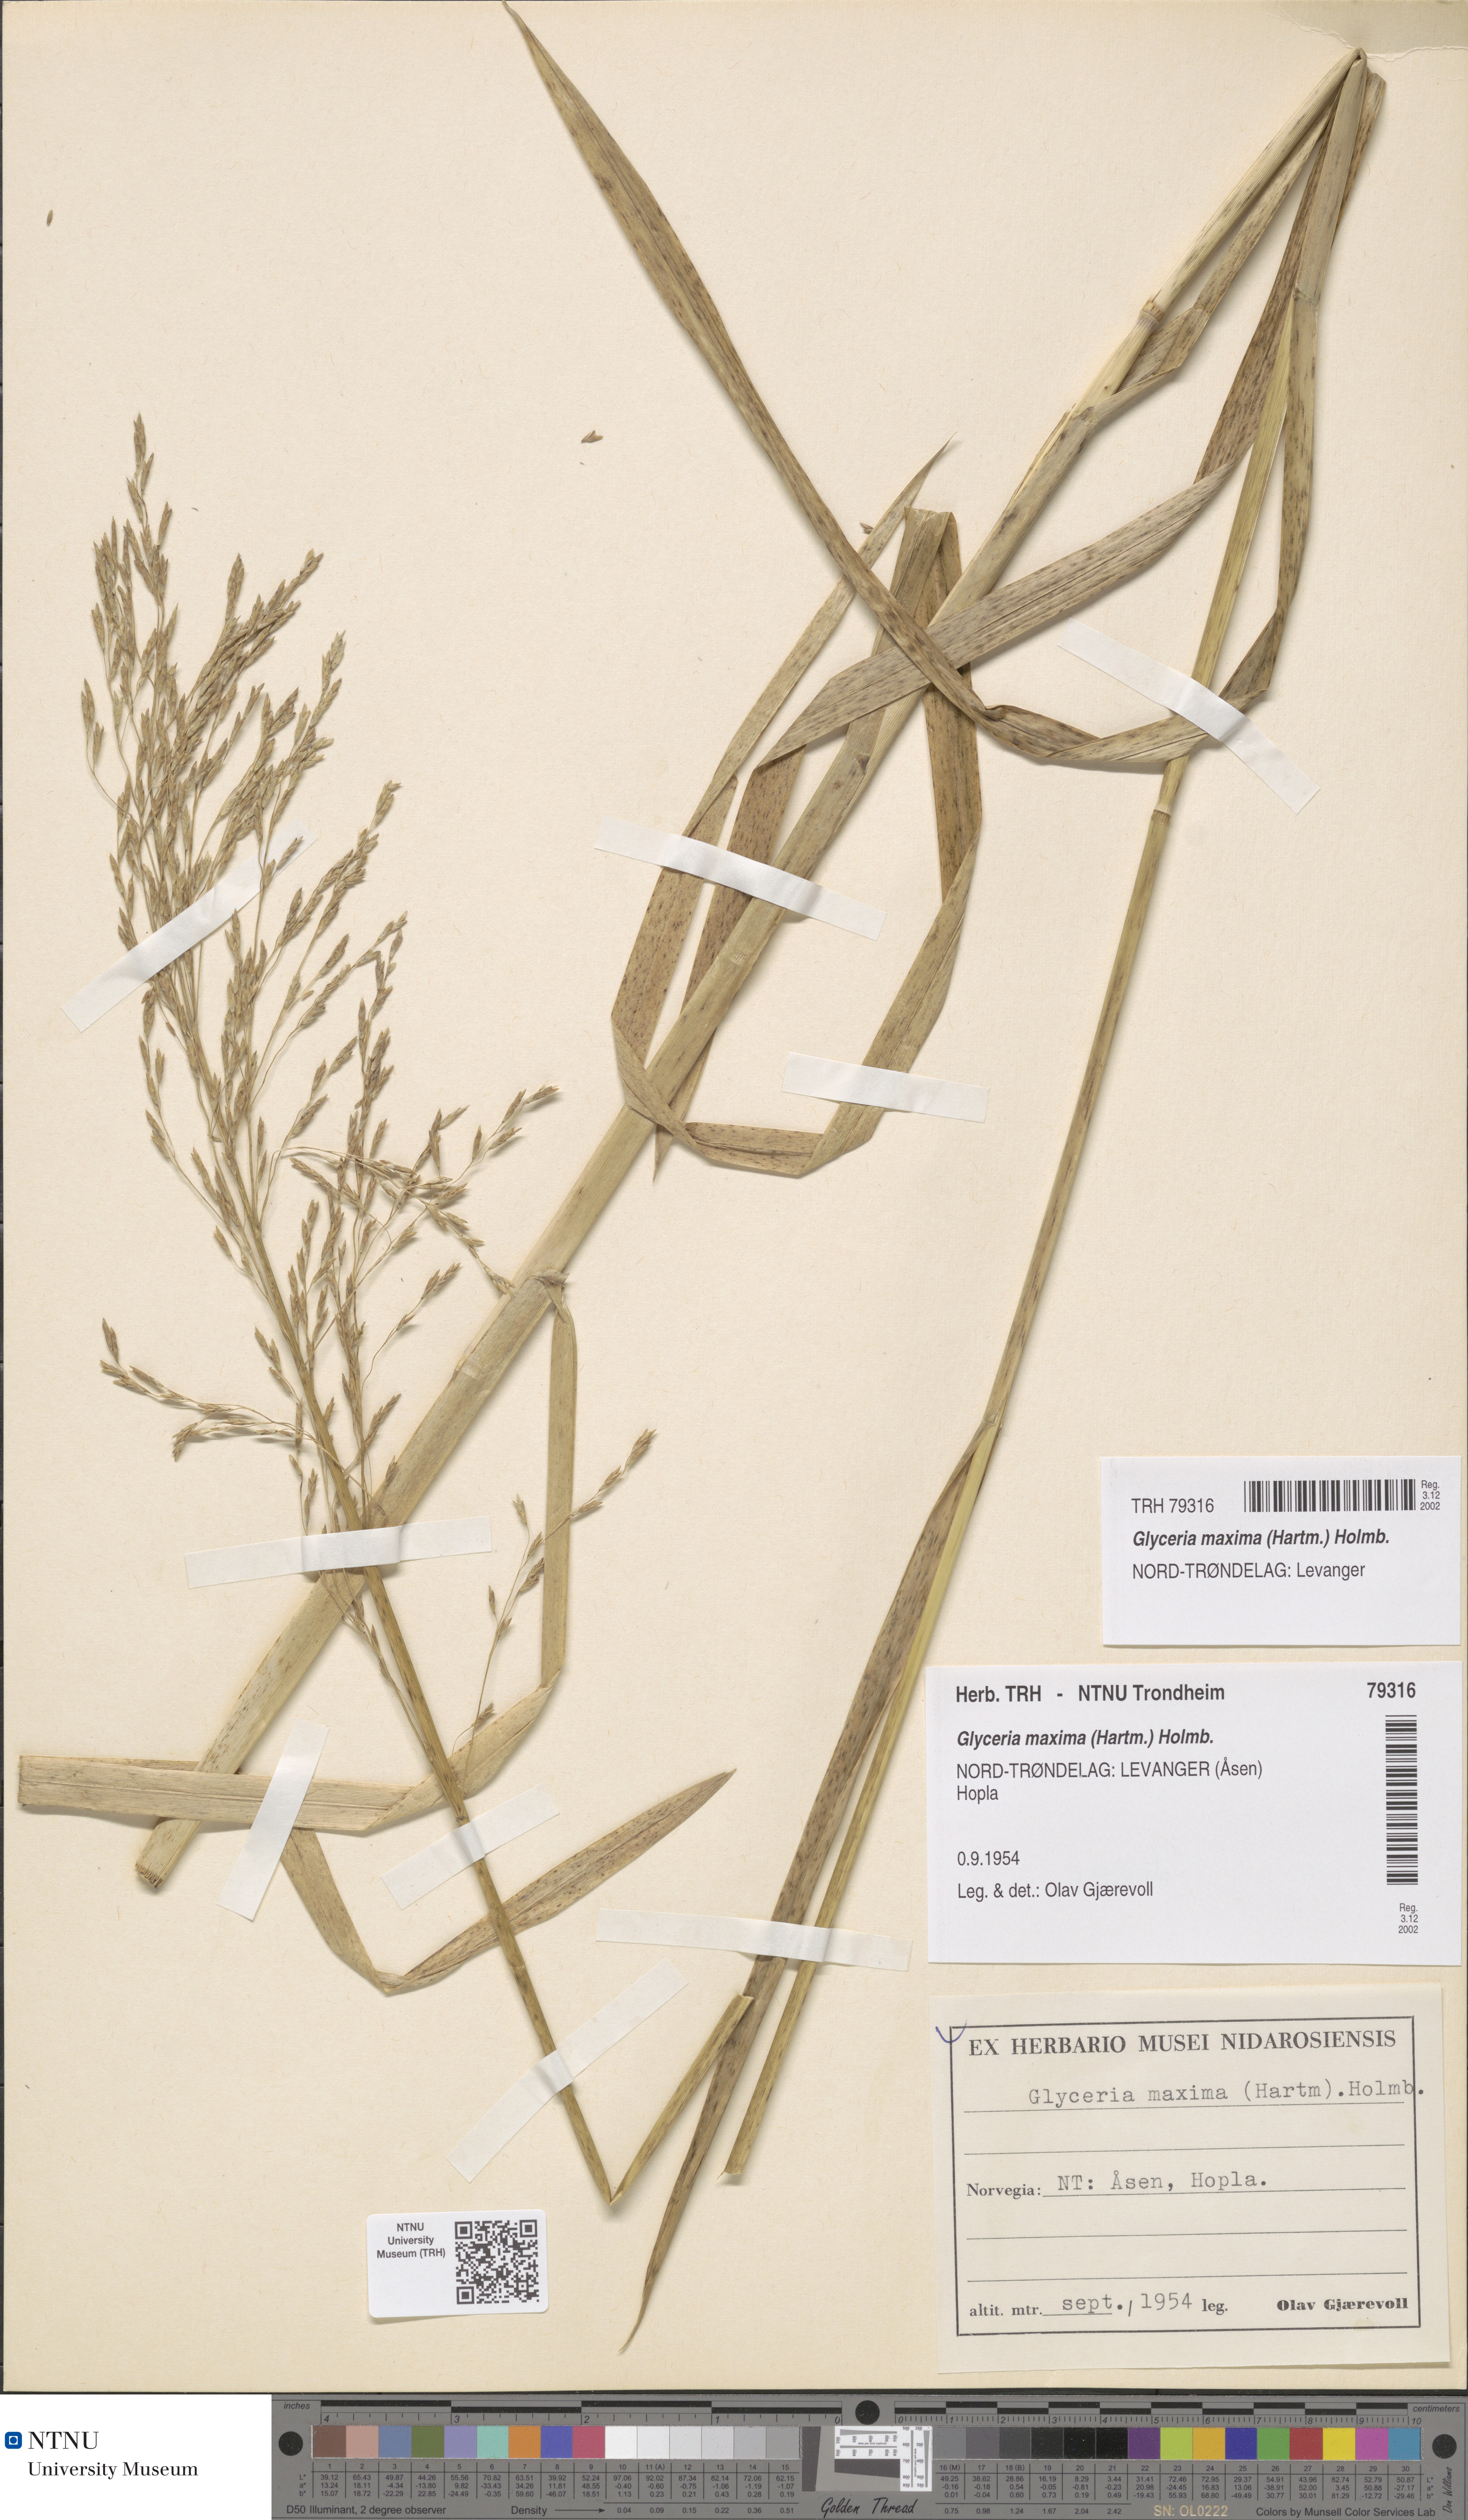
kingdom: Plantae
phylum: Tracheophyta
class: Liliopsida
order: Poales
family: Poaceae
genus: Glyceria
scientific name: Glyceria maxima
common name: Reed mannagrass
